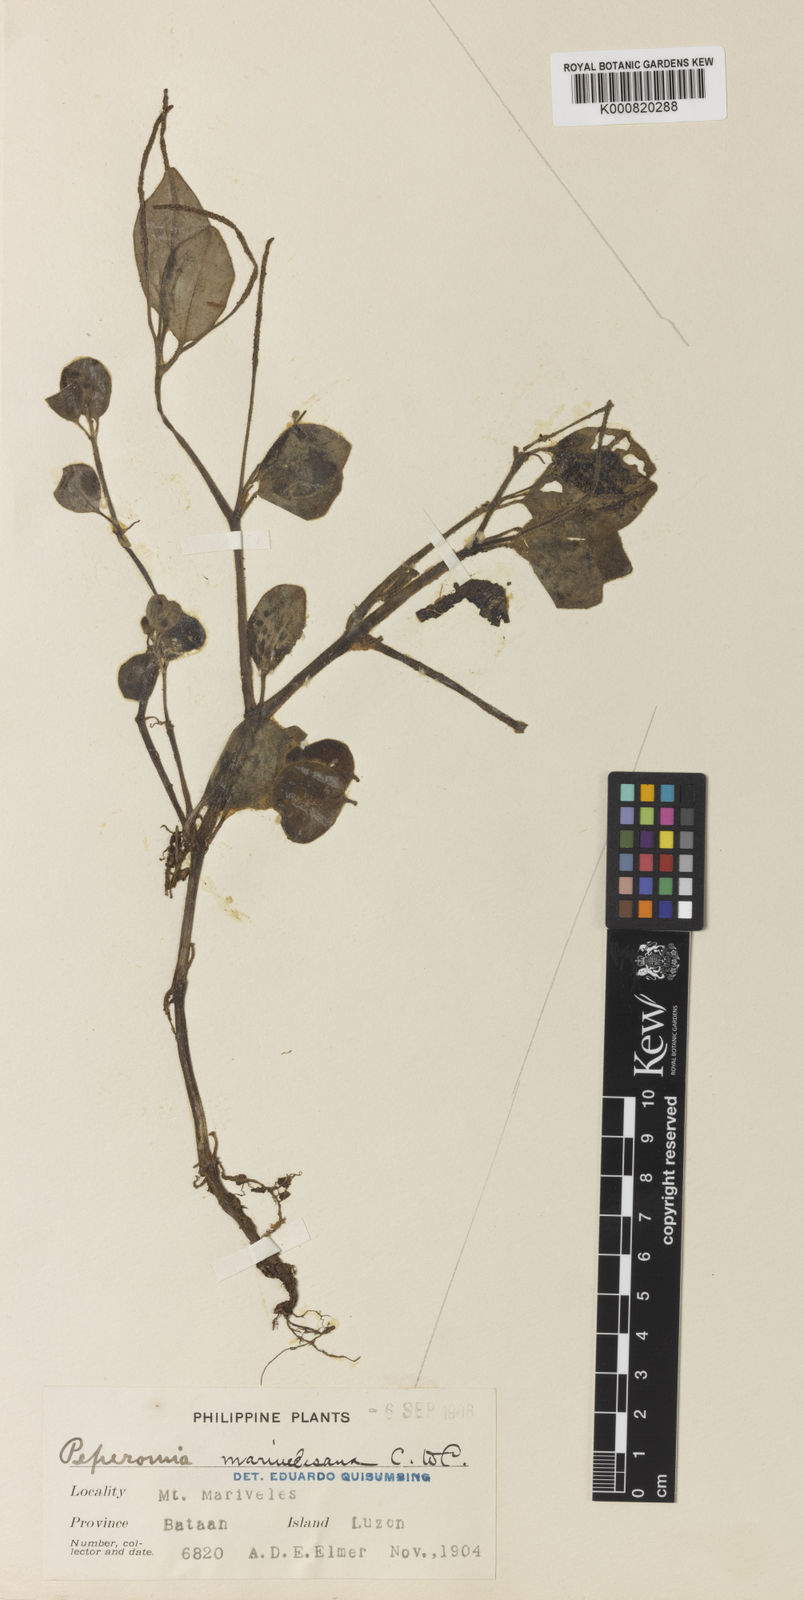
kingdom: Plantae
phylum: Tracheophyta
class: Magnoliopsida
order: Piperales
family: Piperaceae
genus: Peperomia
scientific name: Peperomia marivelesana
